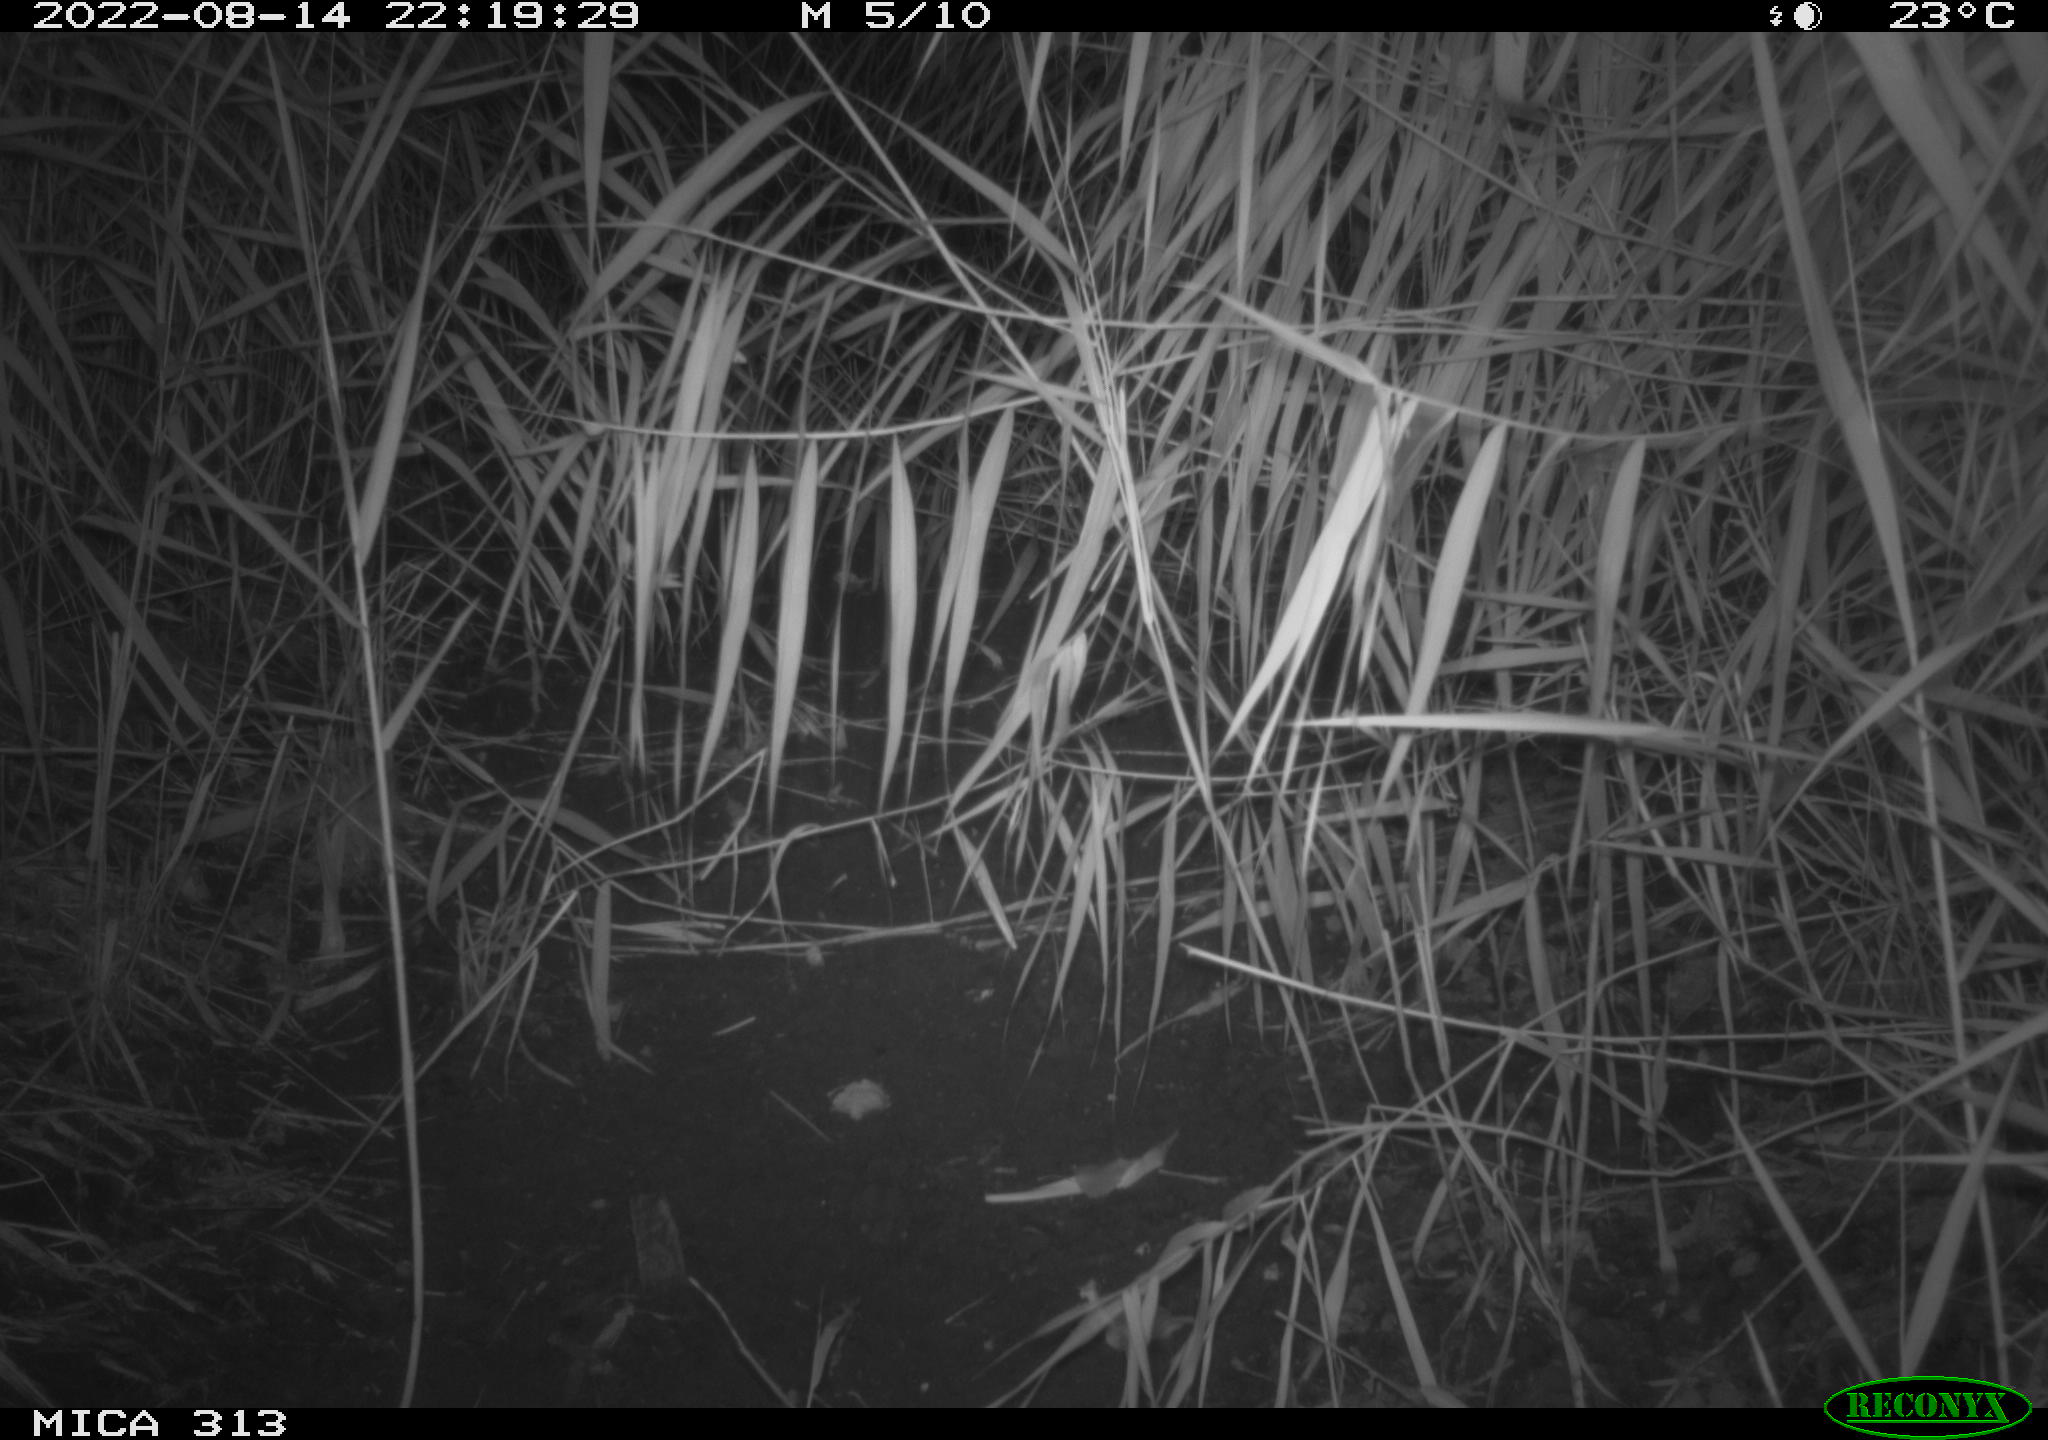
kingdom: Animalia
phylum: Chordata
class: Mammalia
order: Rodentia
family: Muridae
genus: Rattus
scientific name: Rattus norvegicus
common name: Brown rat
